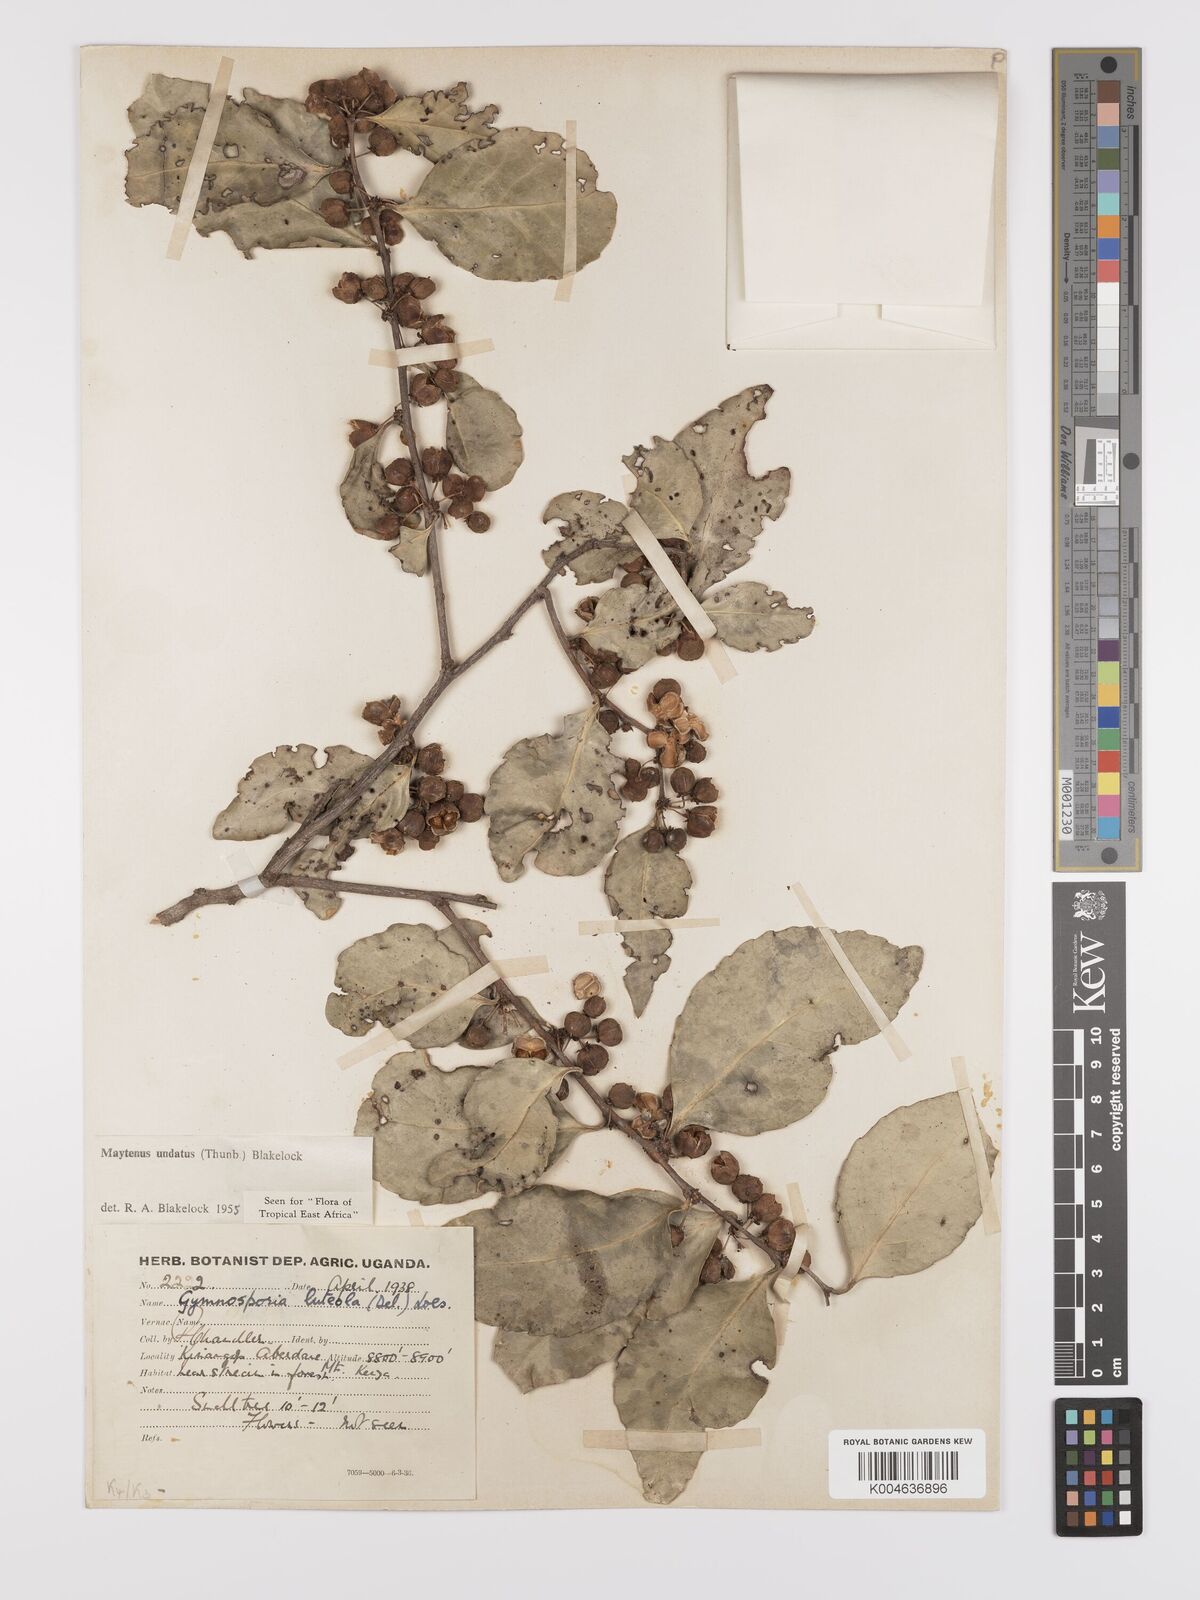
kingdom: Plantae
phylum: Tracheophyta
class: Magnoliopsida
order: Celastrales
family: Celastraceae
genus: Gymnosporia
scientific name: Gymnosporia undata
